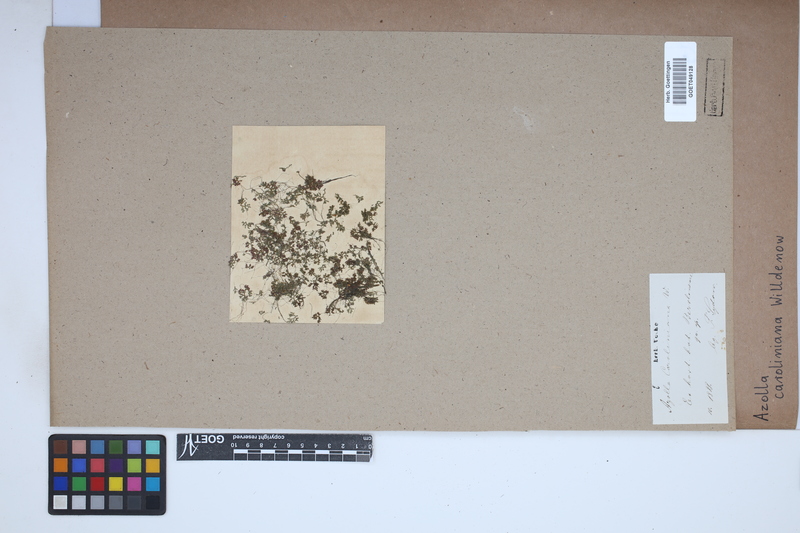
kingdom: Plantae
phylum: Tracheophyta
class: Polypodiopsida
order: Salviniales
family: Salviniaceae
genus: Azolla
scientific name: Azolla caroliniana
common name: Carolina mosquitofern
